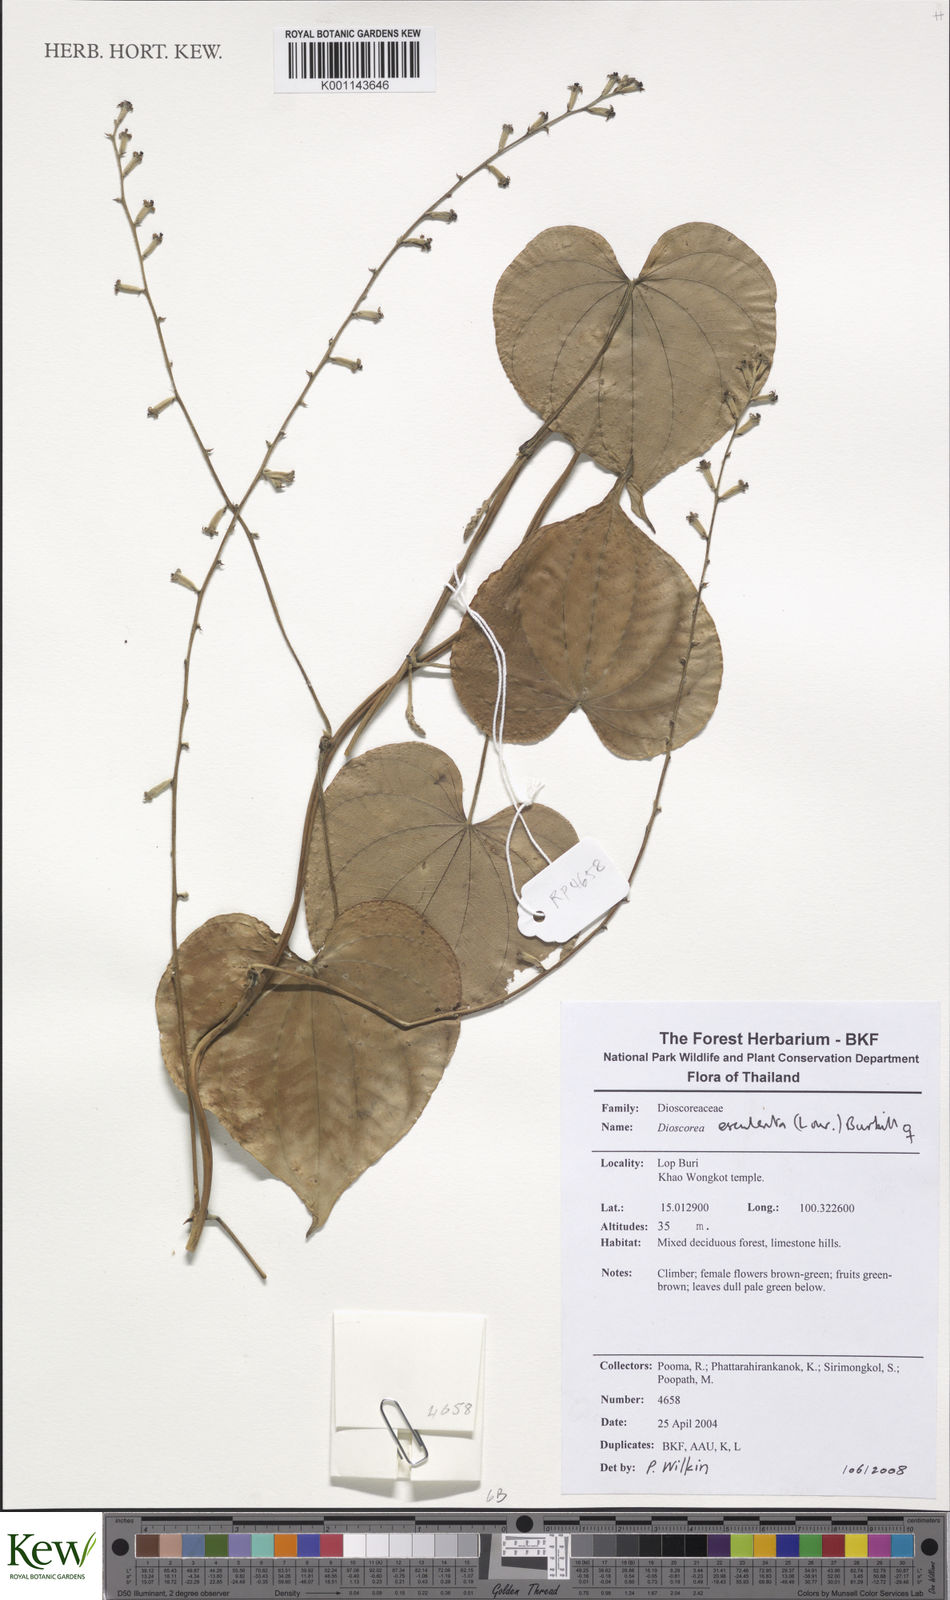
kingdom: Plantae
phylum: Tracheophyta
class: Liliopsida
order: Dioscoreales
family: Dioscoreaceae
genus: Dioscorea
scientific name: Dioscorea esculenta
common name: Chinese yam
